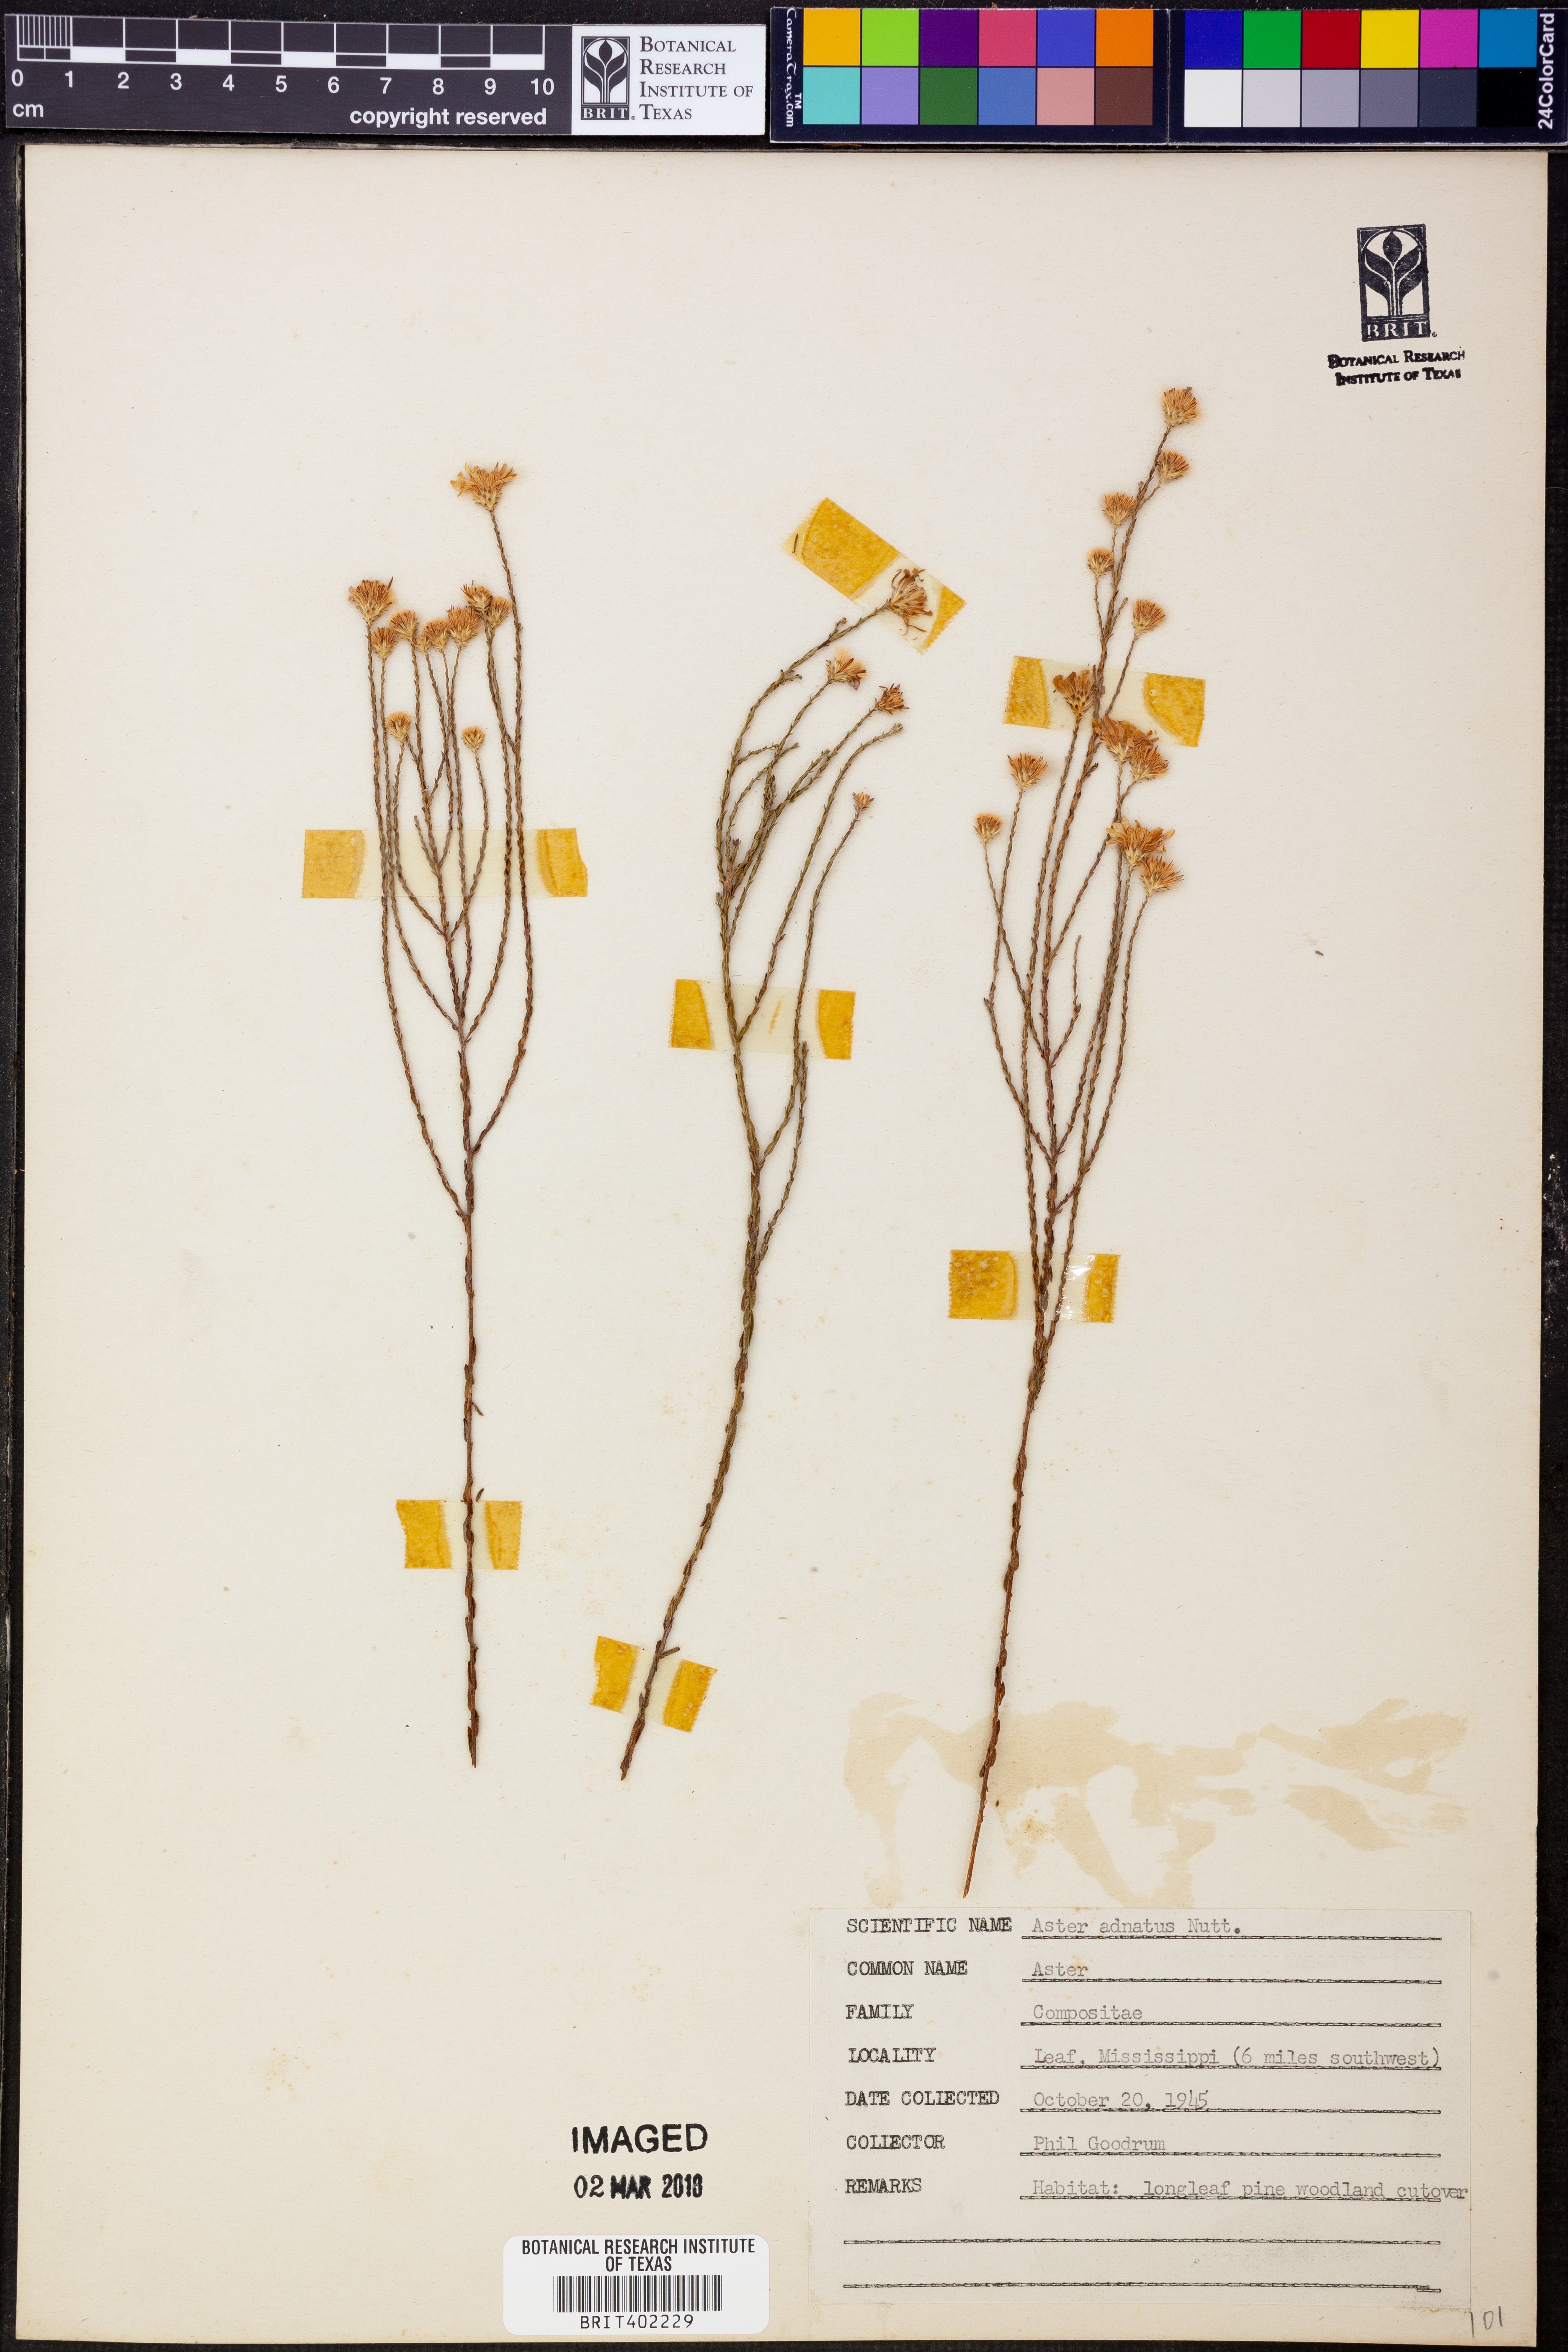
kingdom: Plantae
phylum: Tracheophyta
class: Magnoliopsida
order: Asterales
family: Asteraceae
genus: Symphyotrichum
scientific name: Symphyotrichum adnatum
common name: Scale-leaf aster
